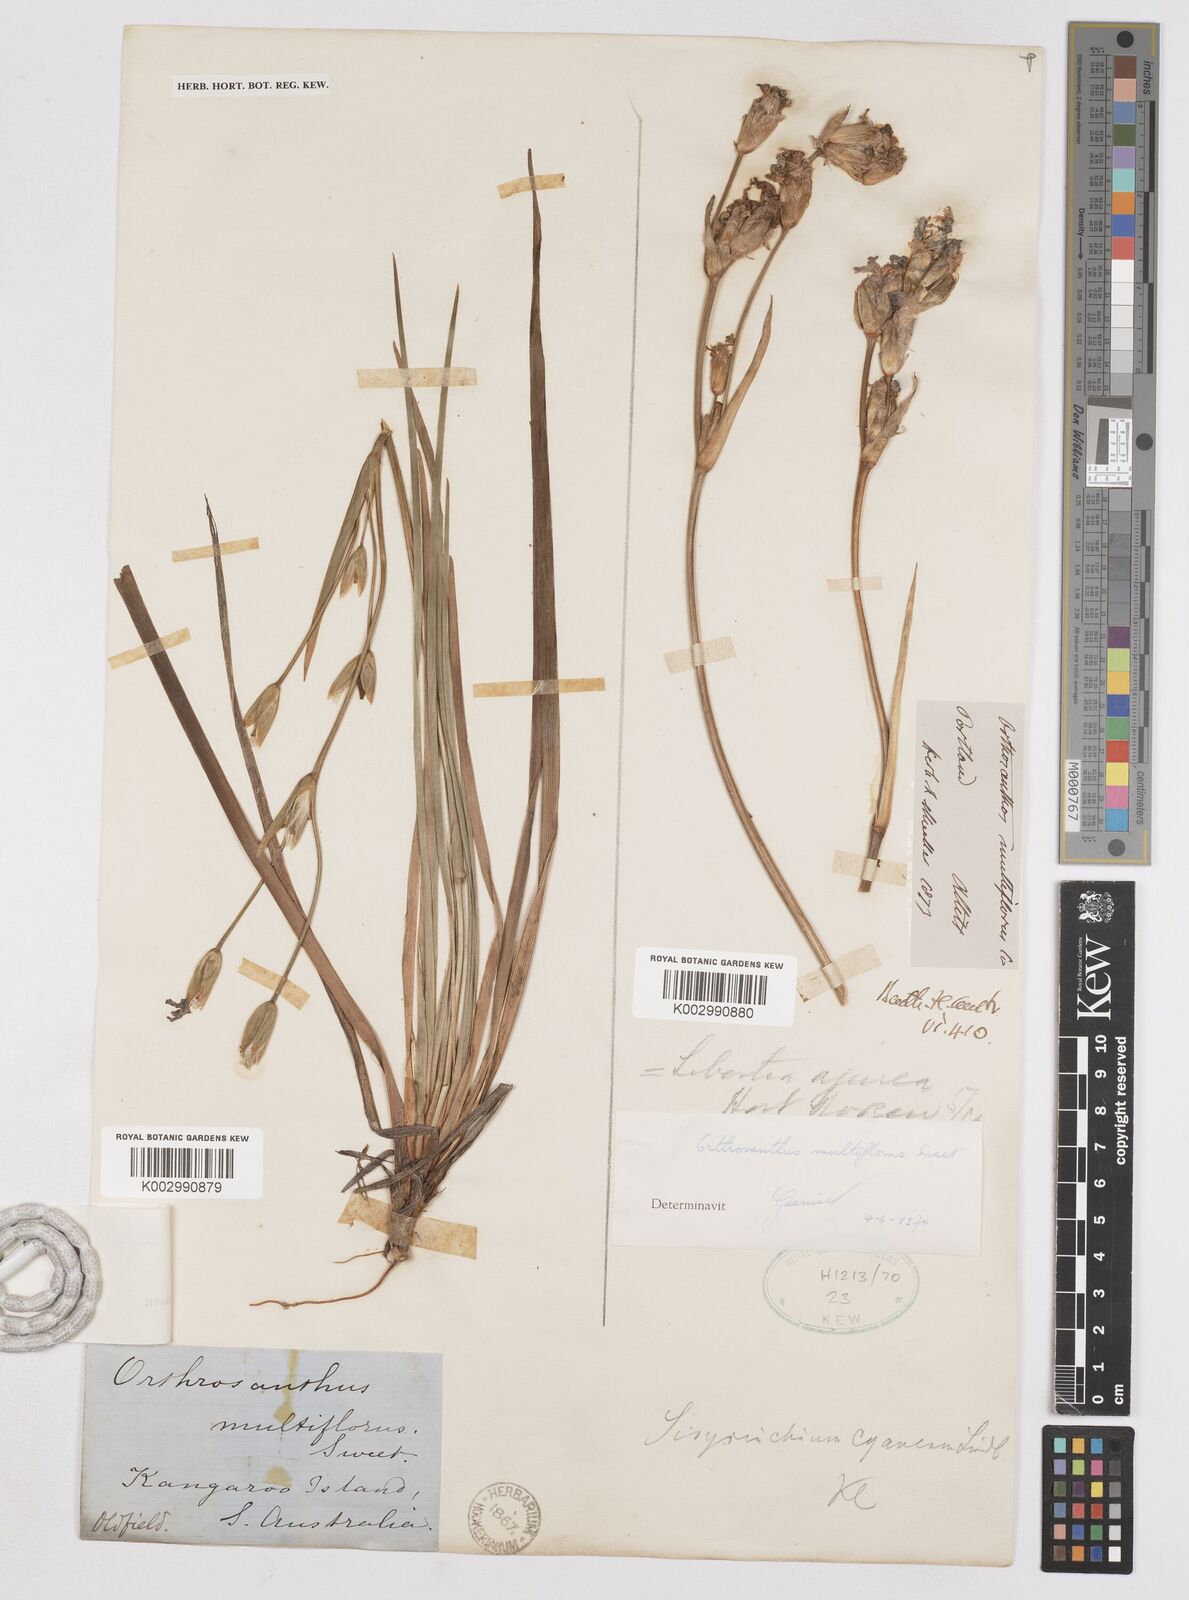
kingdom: Plantae
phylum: Tracheophyta
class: Liliopsida
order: Asparagales
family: Iridaceae
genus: Orthrosanthus
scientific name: Orthrosanthus multiflorus
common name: Morning-flag
